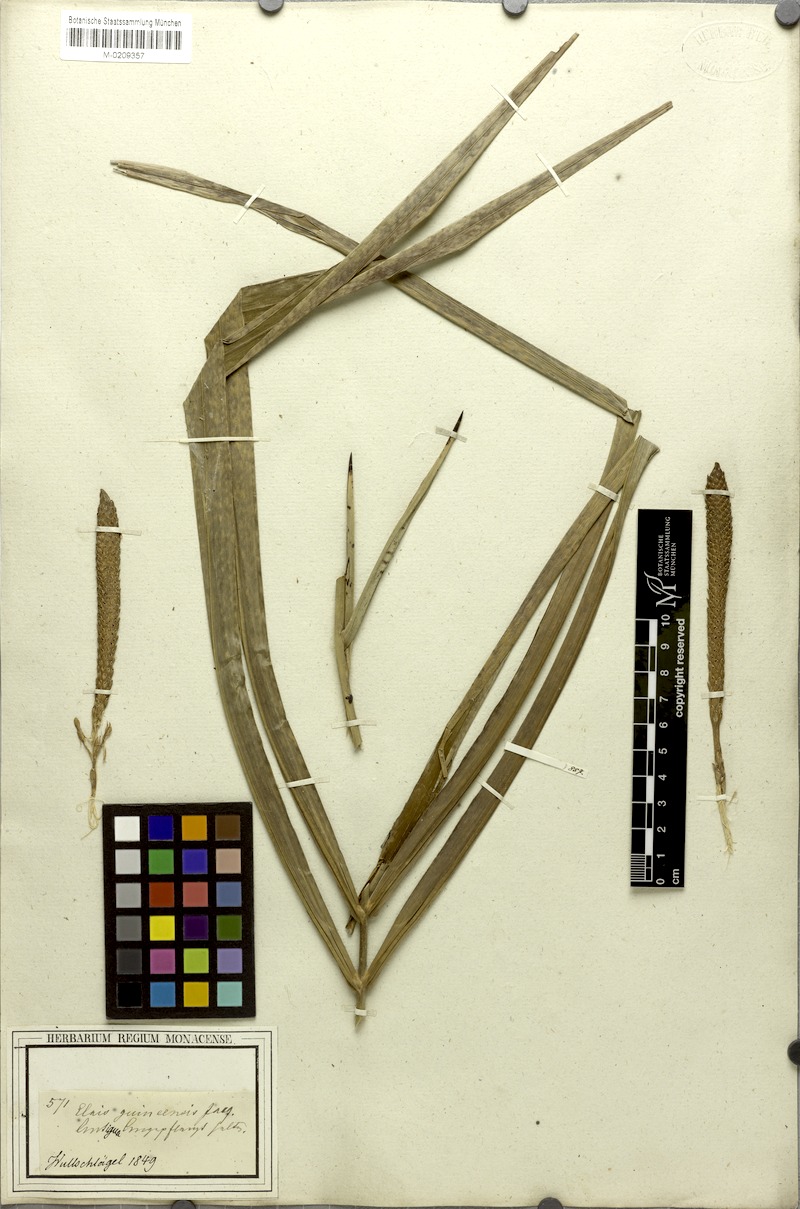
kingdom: Plantae
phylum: Tracheophyta
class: Liliopsida
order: Arecales
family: Arecaceae
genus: Elaeis
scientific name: Elaeis guineensis
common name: Oil palm
